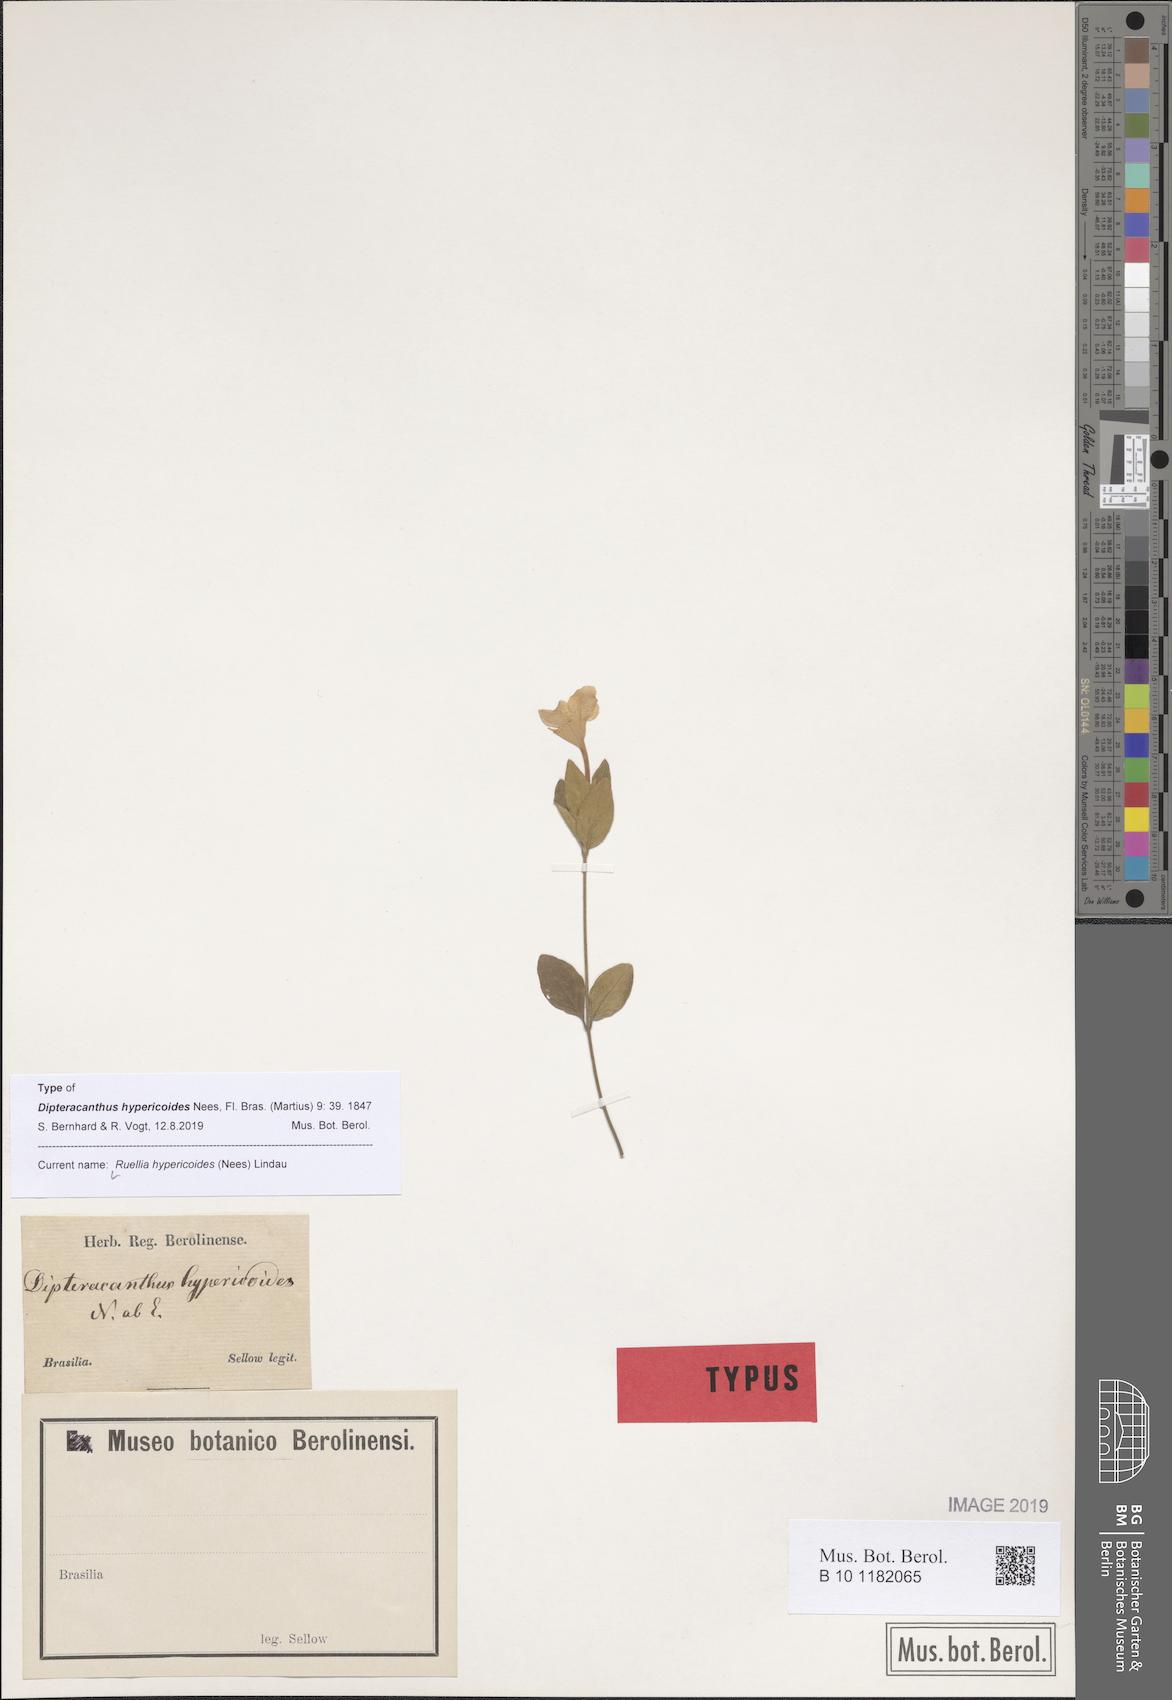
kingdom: Plantae
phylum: Tracheophyta
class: Magnoliopsida
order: Lamiales
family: Acanthaceae
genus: Ruellia
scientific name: Ruellia hypericoides
